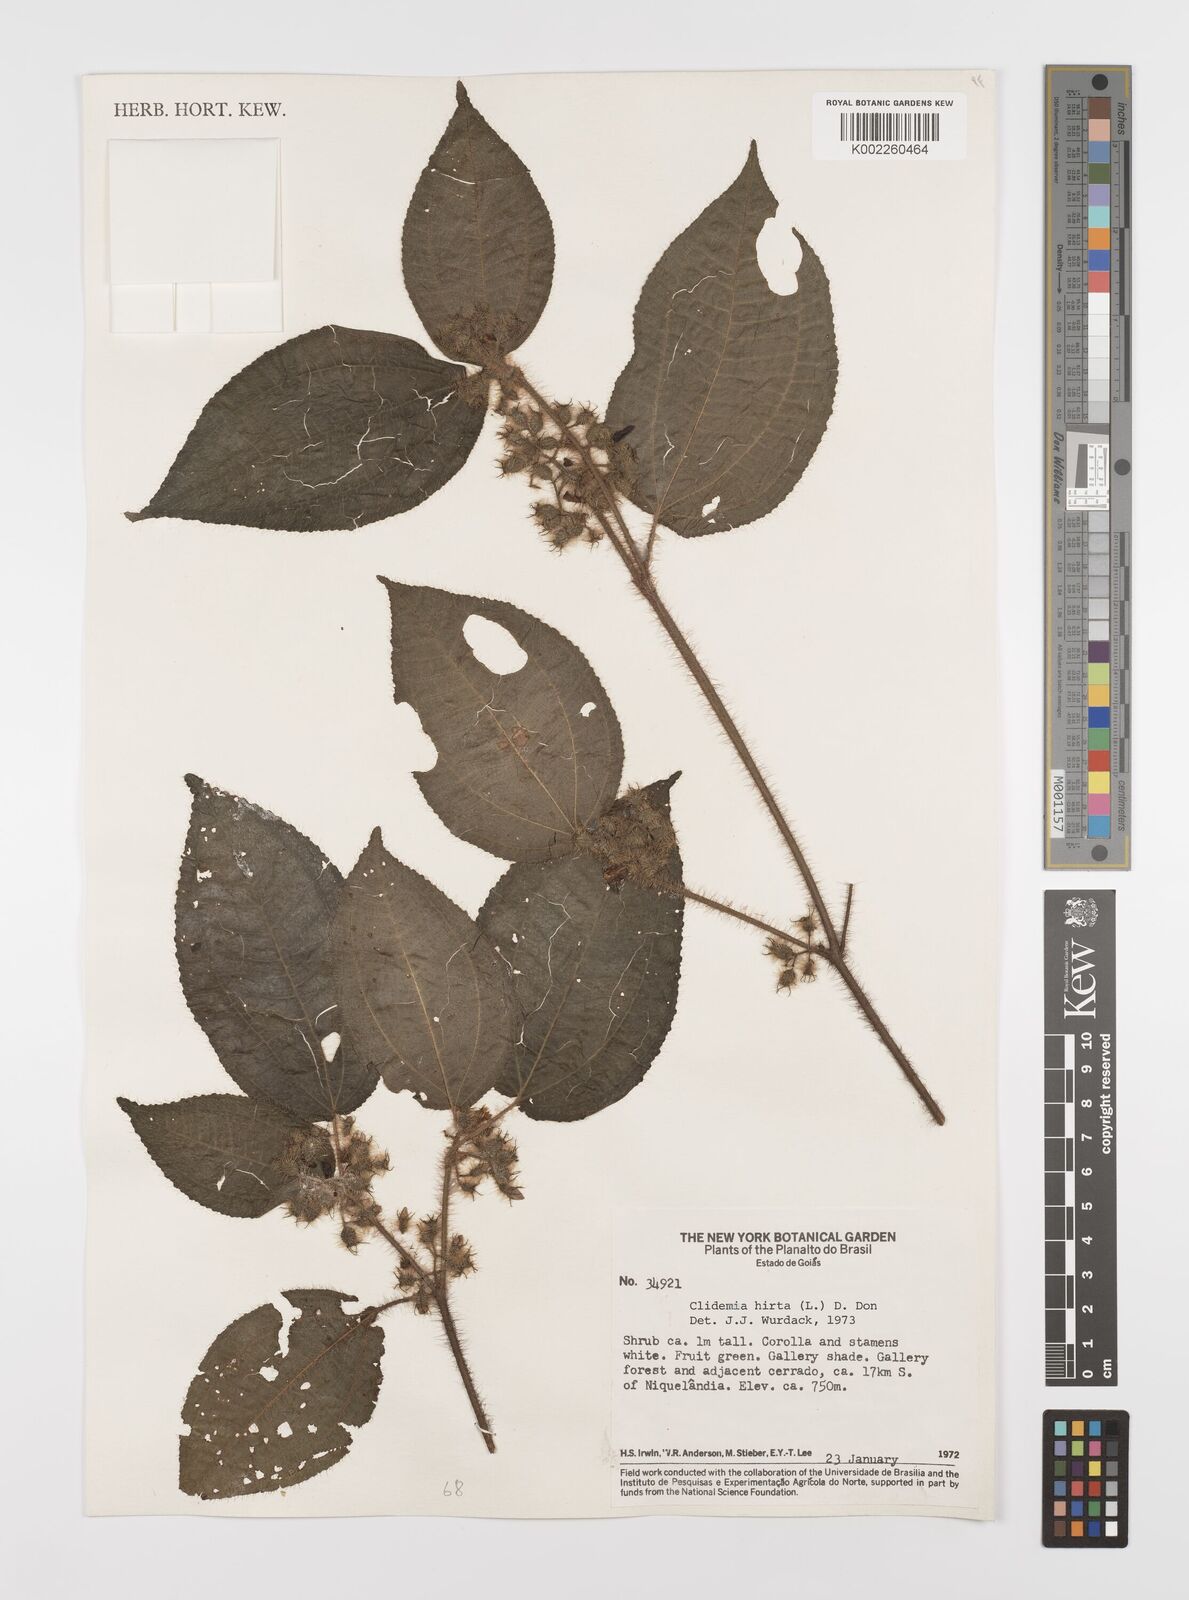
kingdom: Plantae
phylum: Tracheophyta
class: Magnoliopsida
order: Myrtales
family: Melastomataceae
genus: Miconia
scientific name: Miconia crenata
